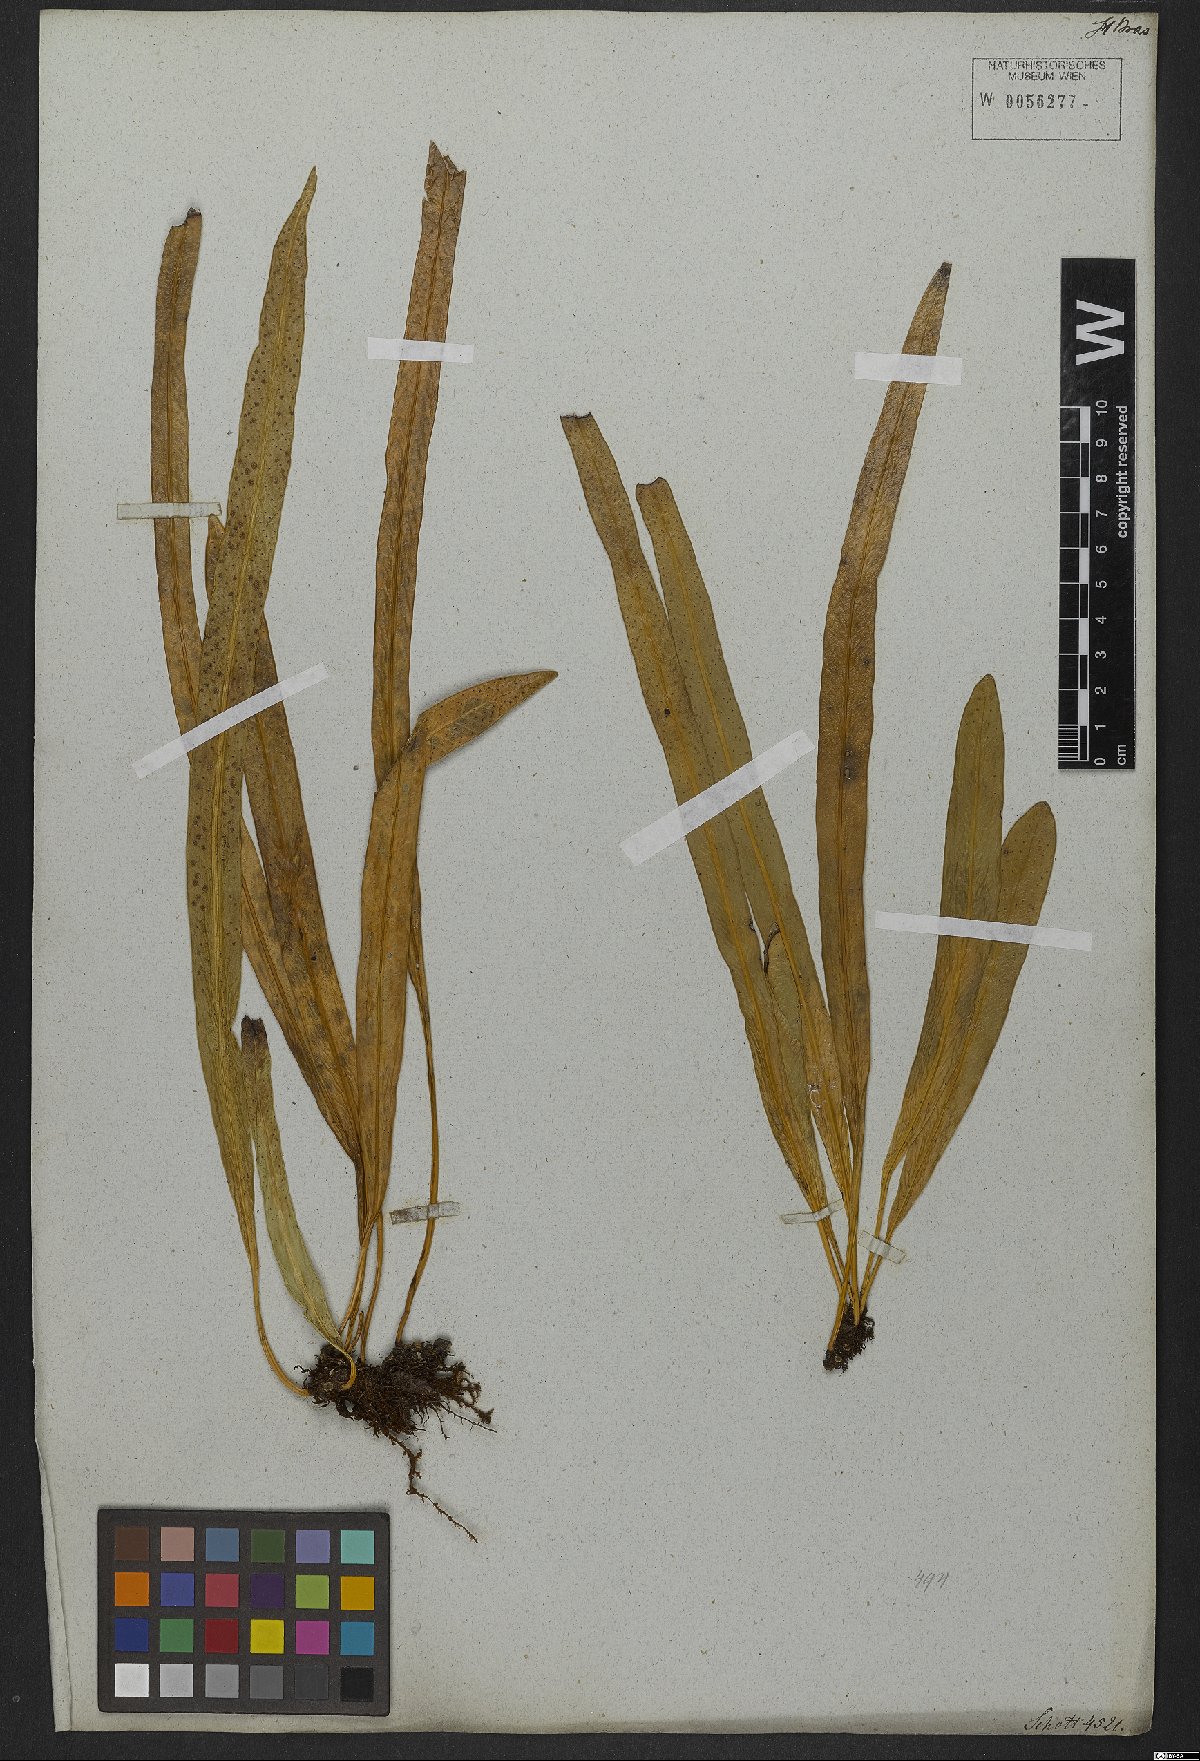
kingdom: Plantae
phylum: Tracheophyta
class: Polypodiopsida
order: Polypodiales
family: Polypodiaceae
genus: Campyloneurum
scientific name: Campyloneurum ensifolium
